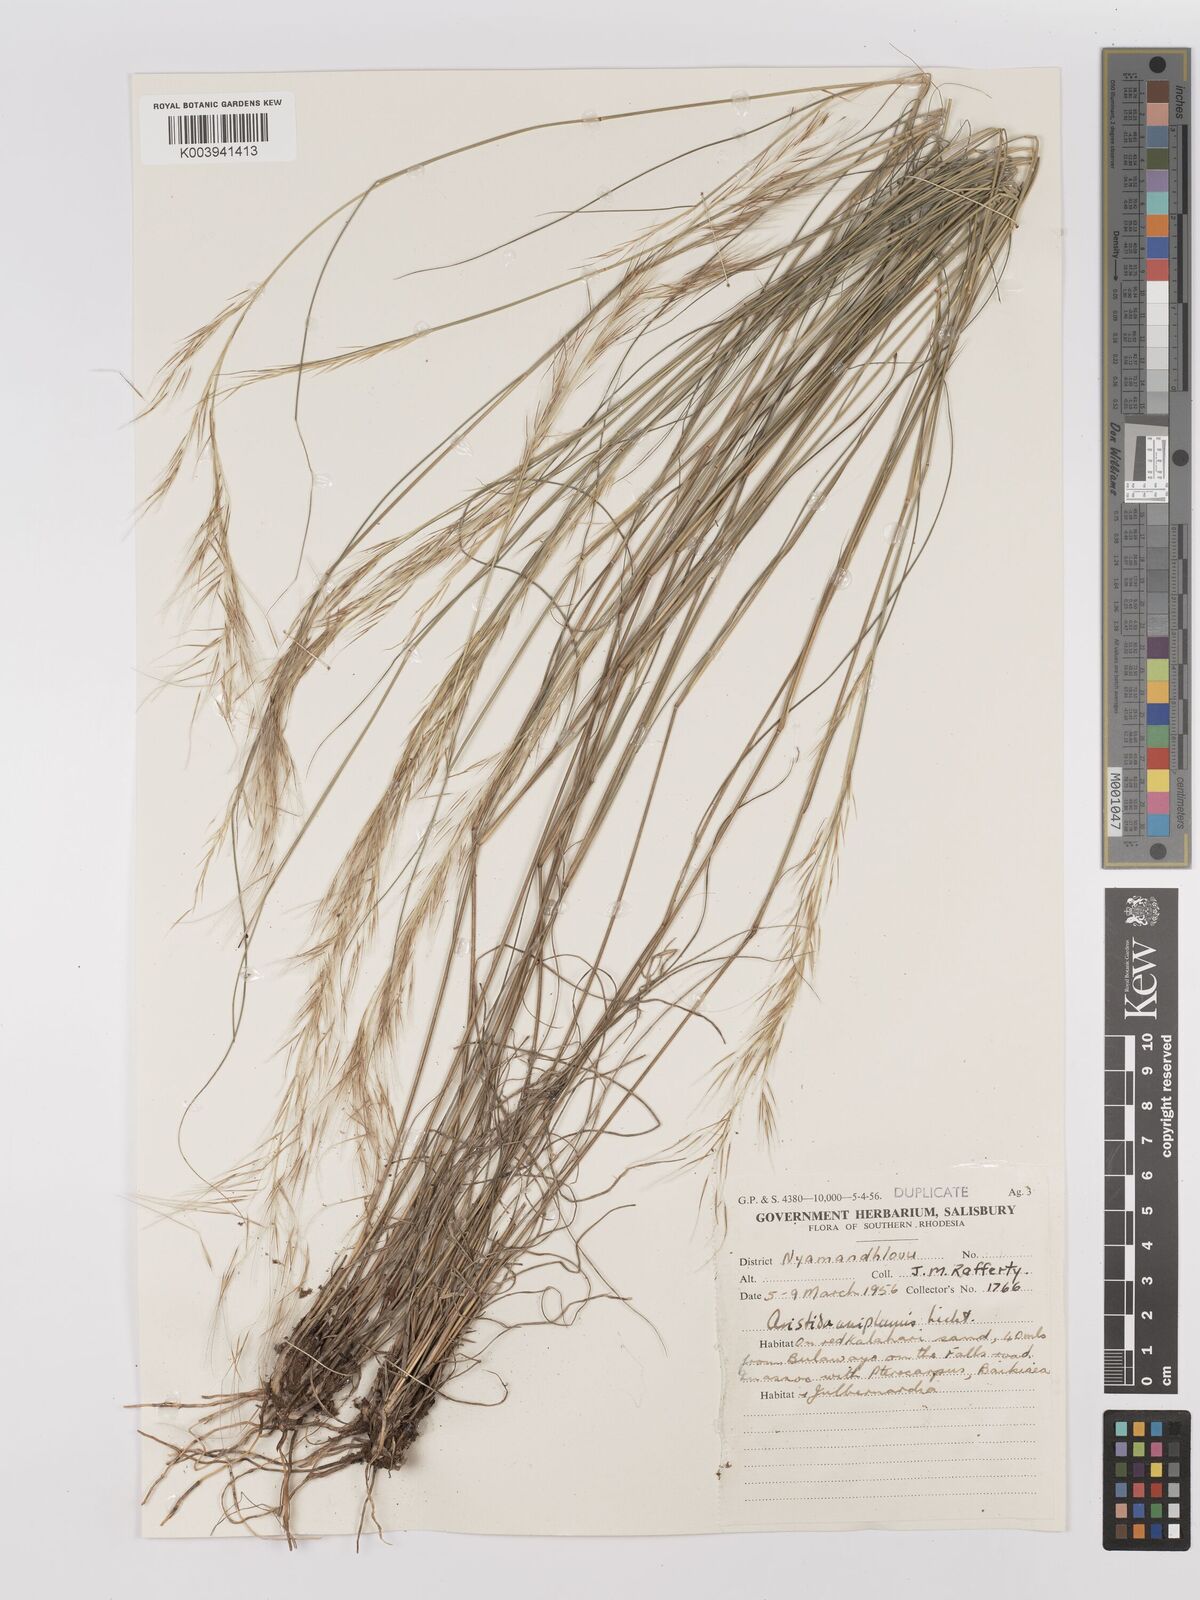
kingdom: Plantae
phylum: Tracheophyta
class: Liliopsida
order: Poales
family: Poaceae
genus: Stipagrostis
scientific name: Stipagrostis uniplumis
